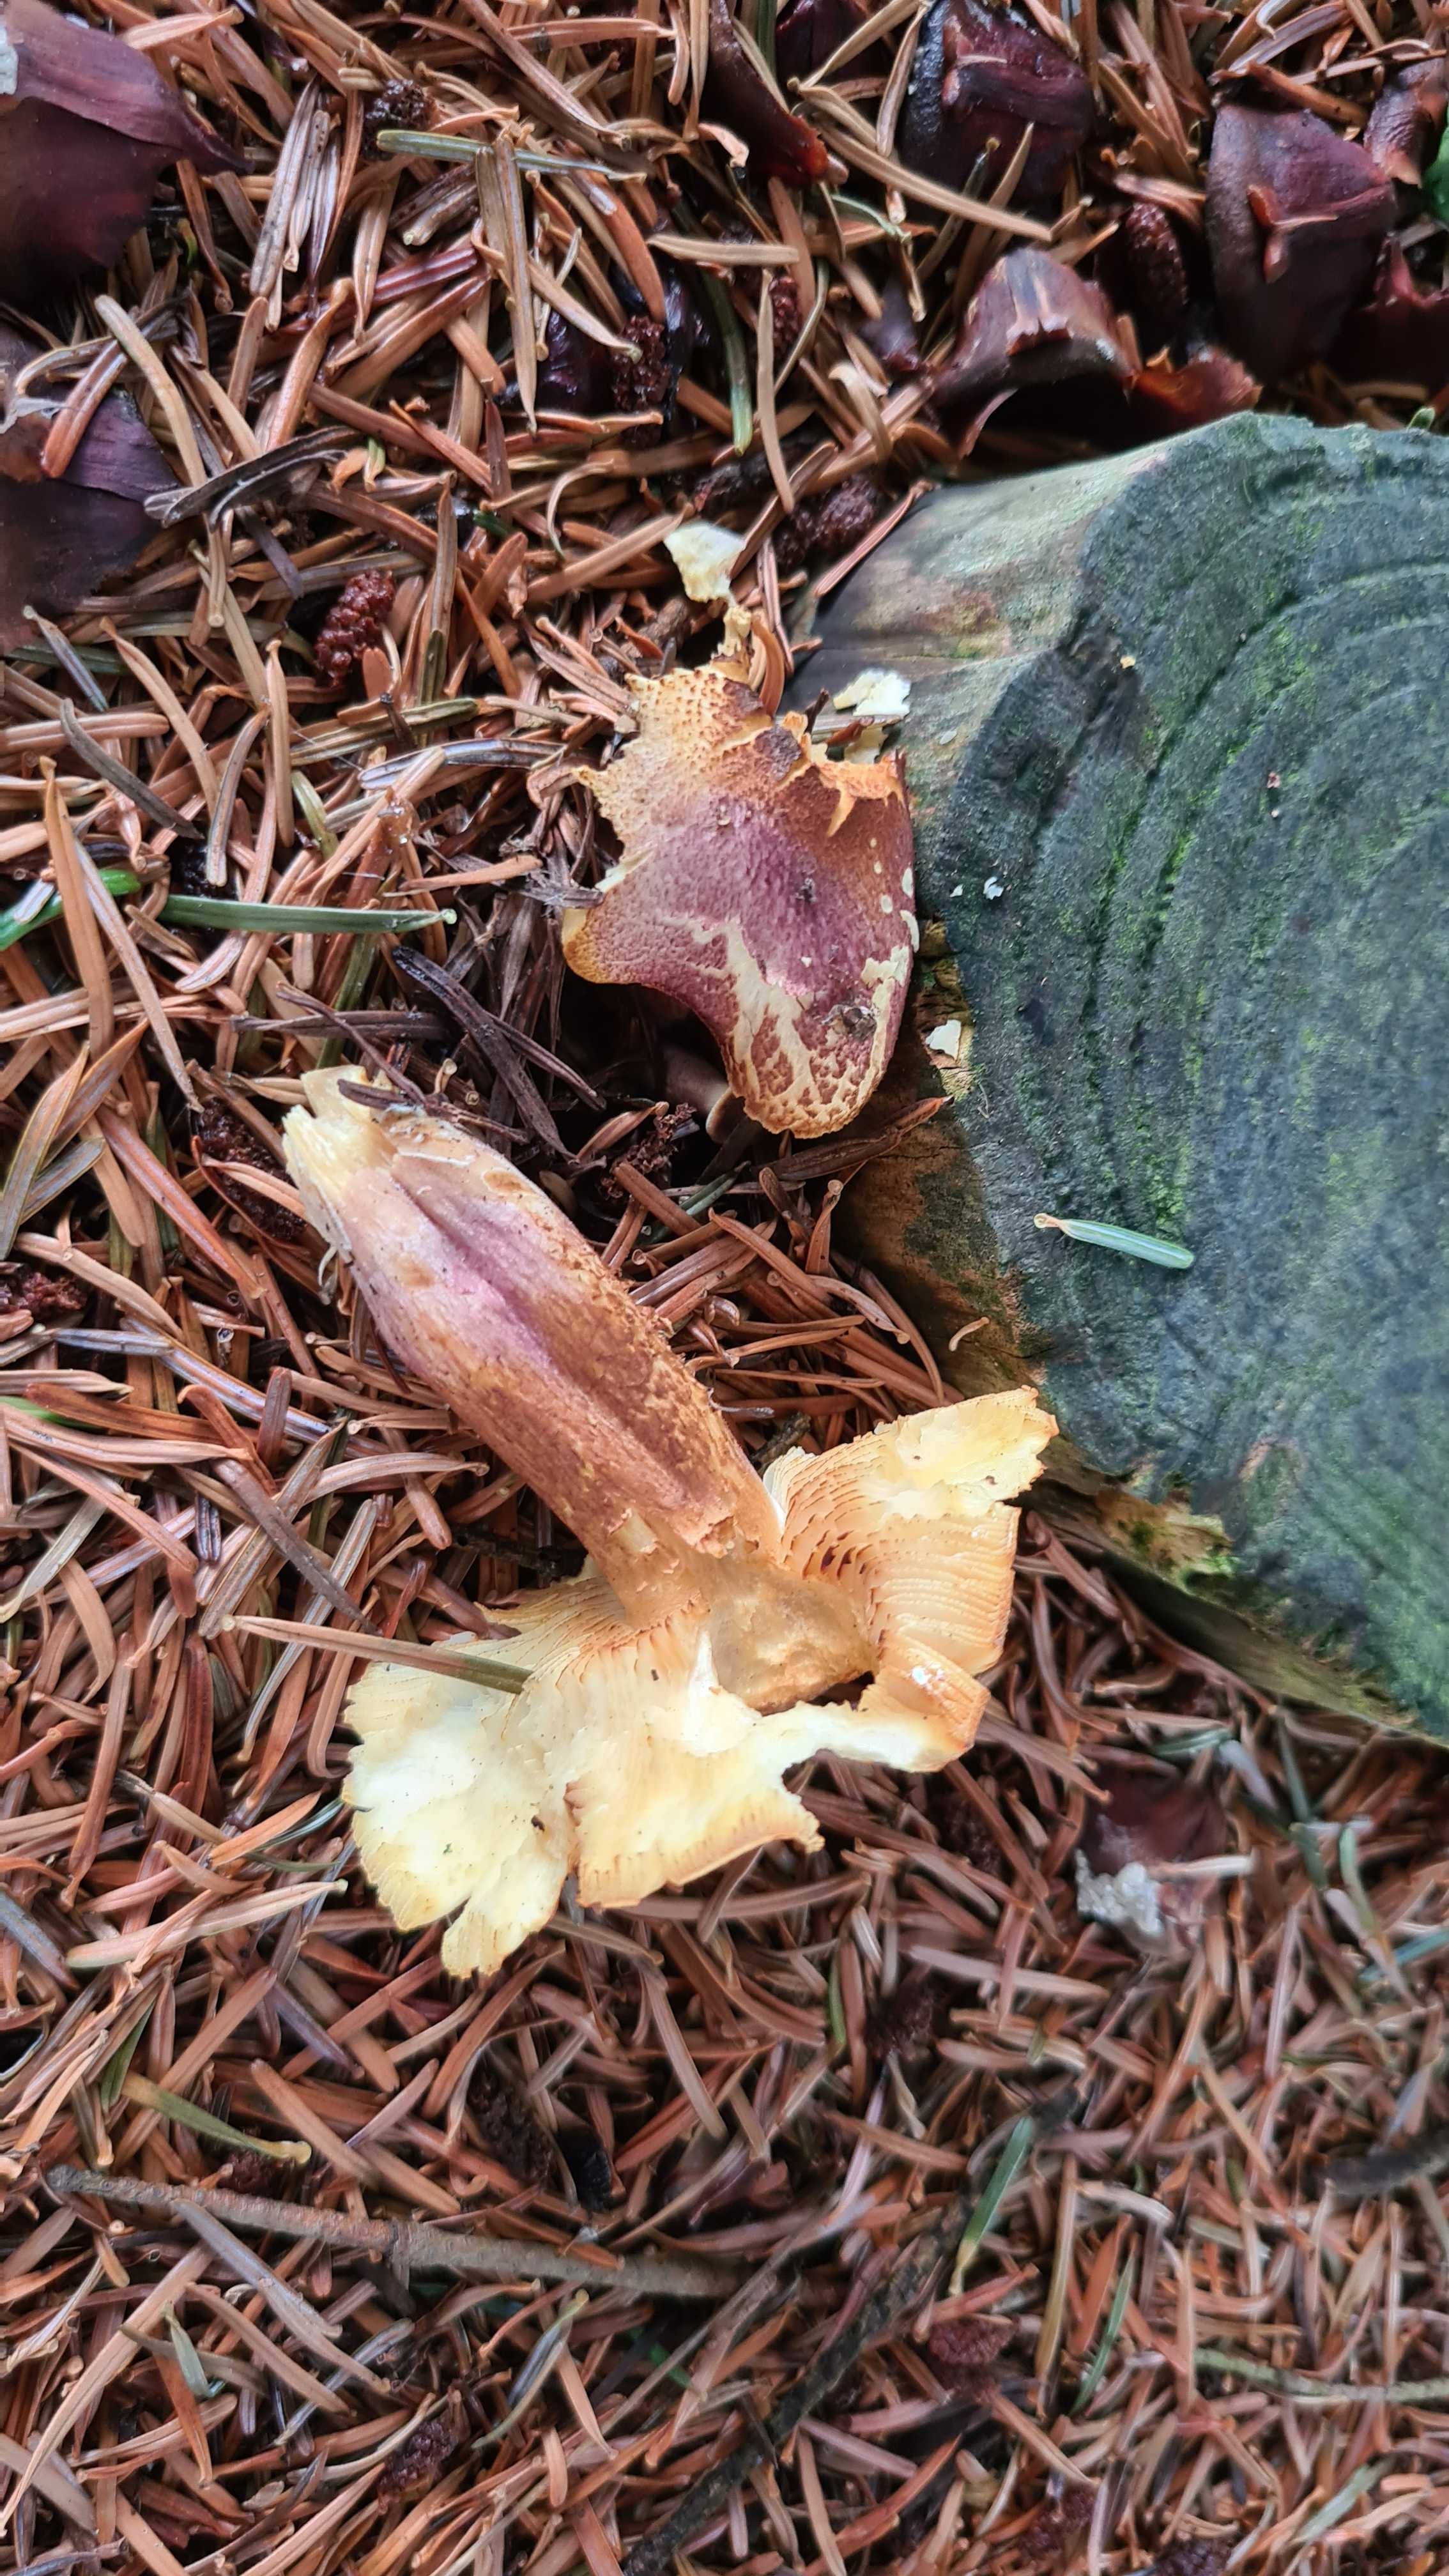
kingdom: Fungi
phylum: Basidiomycota
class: Agaricomycetes
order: Agaricales
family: Tricholomataceae
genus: Tricholomopsis
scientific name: Tricholomopsis rutilans
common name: purpur-væbnerhat
